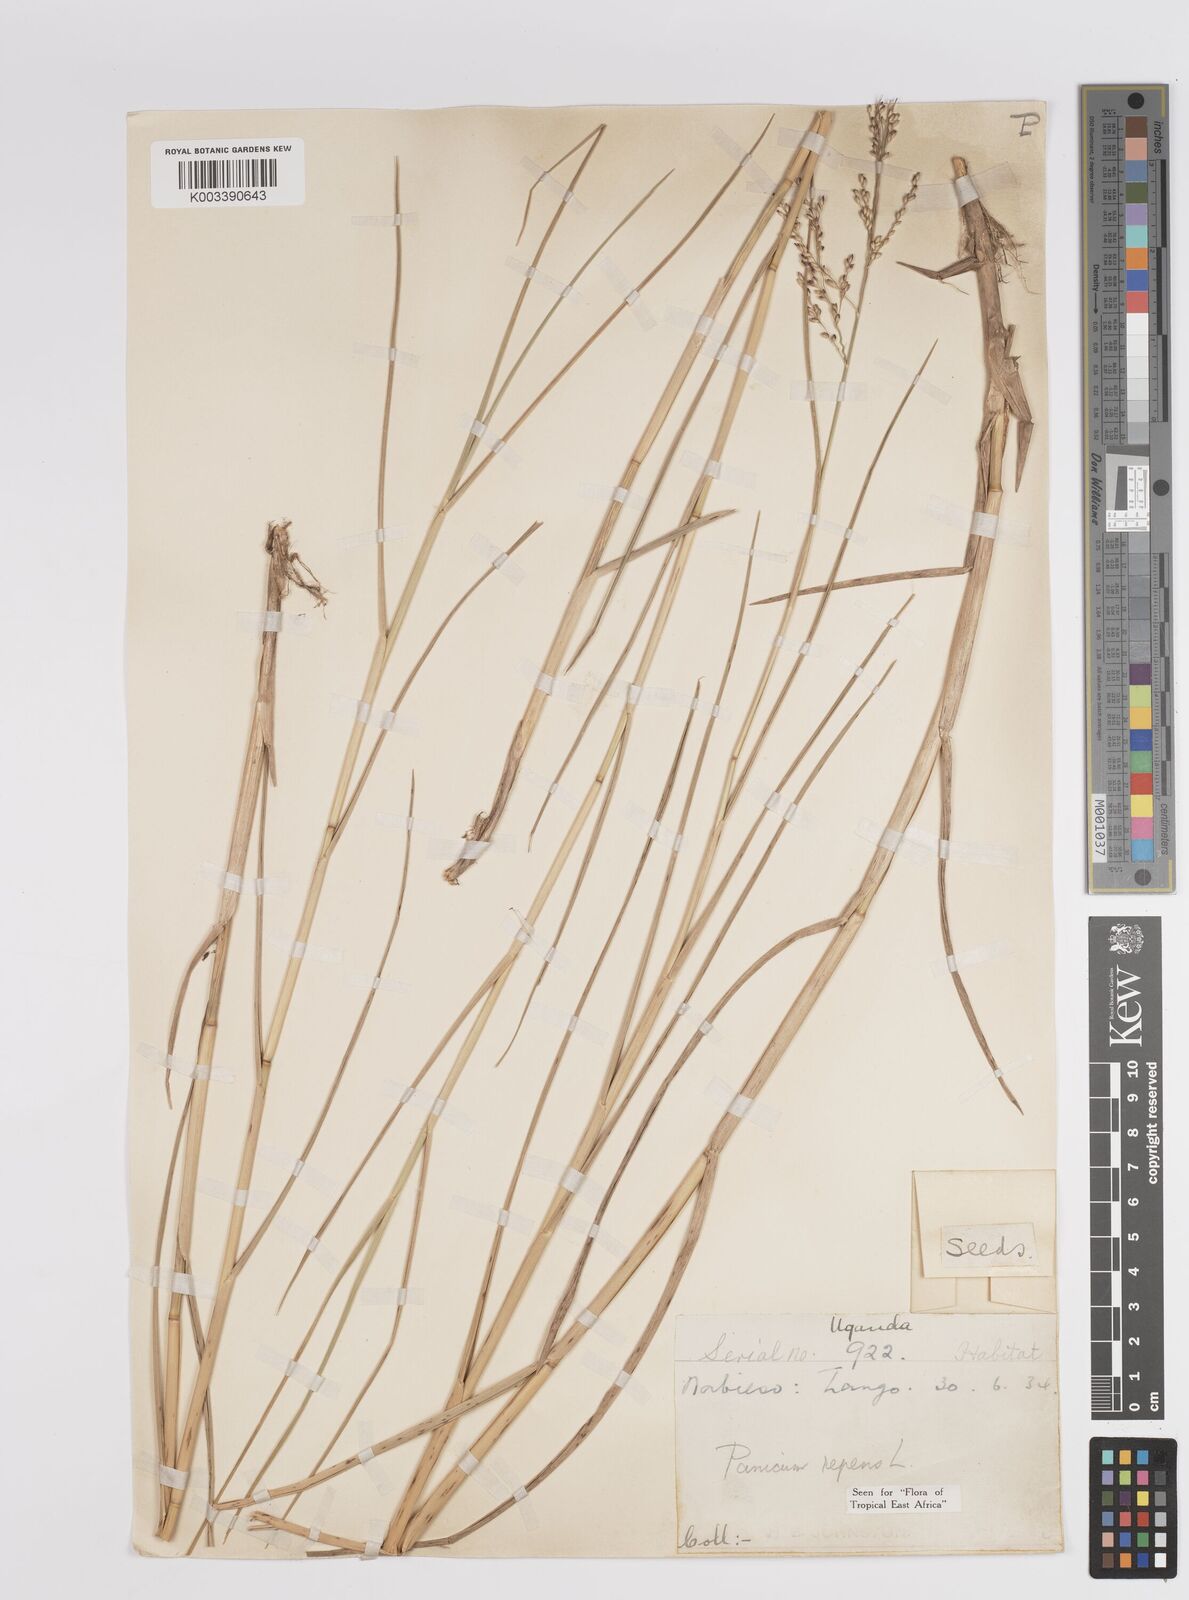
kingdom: Plantae
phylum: Tracheophyta
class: Liliopsida
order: Poales
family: Poaceae
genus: Panicum
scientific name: Panicum repens
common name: Torpedo grass
